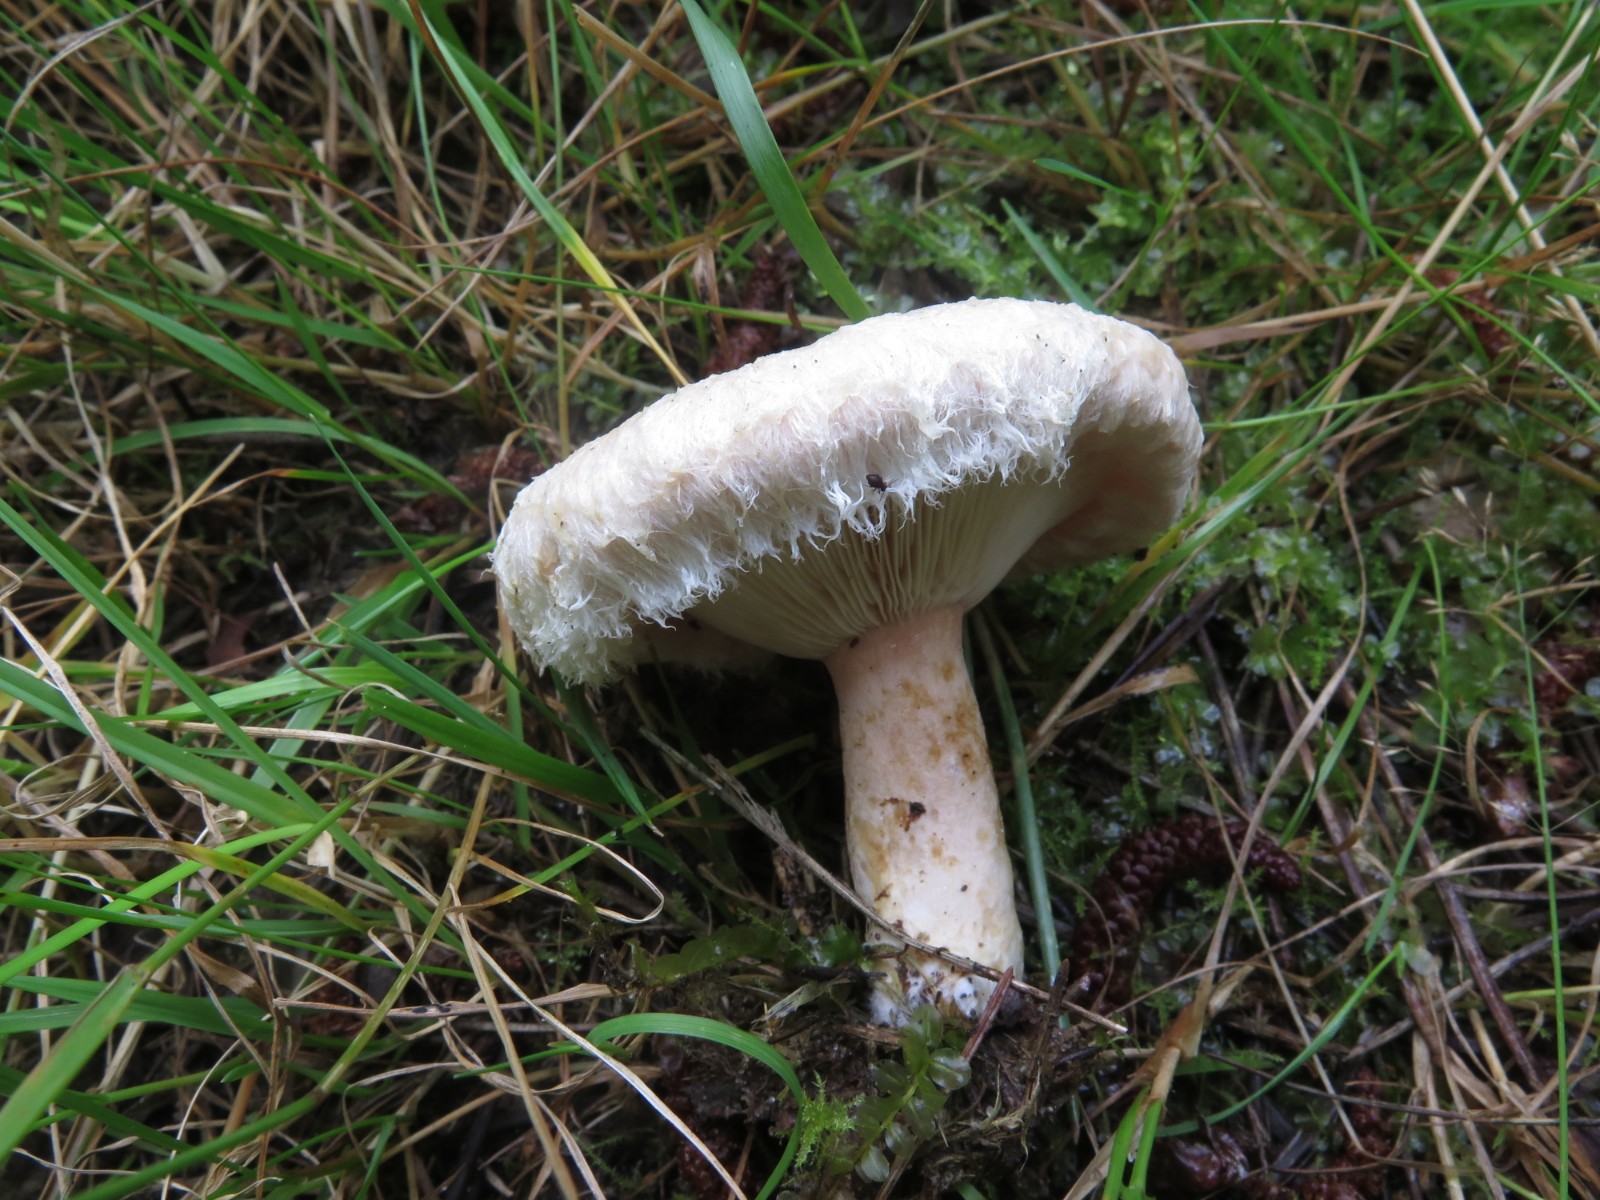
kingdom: Fungi
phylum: Basidiomycota
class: Agaricomycetes
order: Russulales
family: Russulaceae
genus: Lactarius
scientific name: Lactarius pubescens
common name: dunet mælkehat
